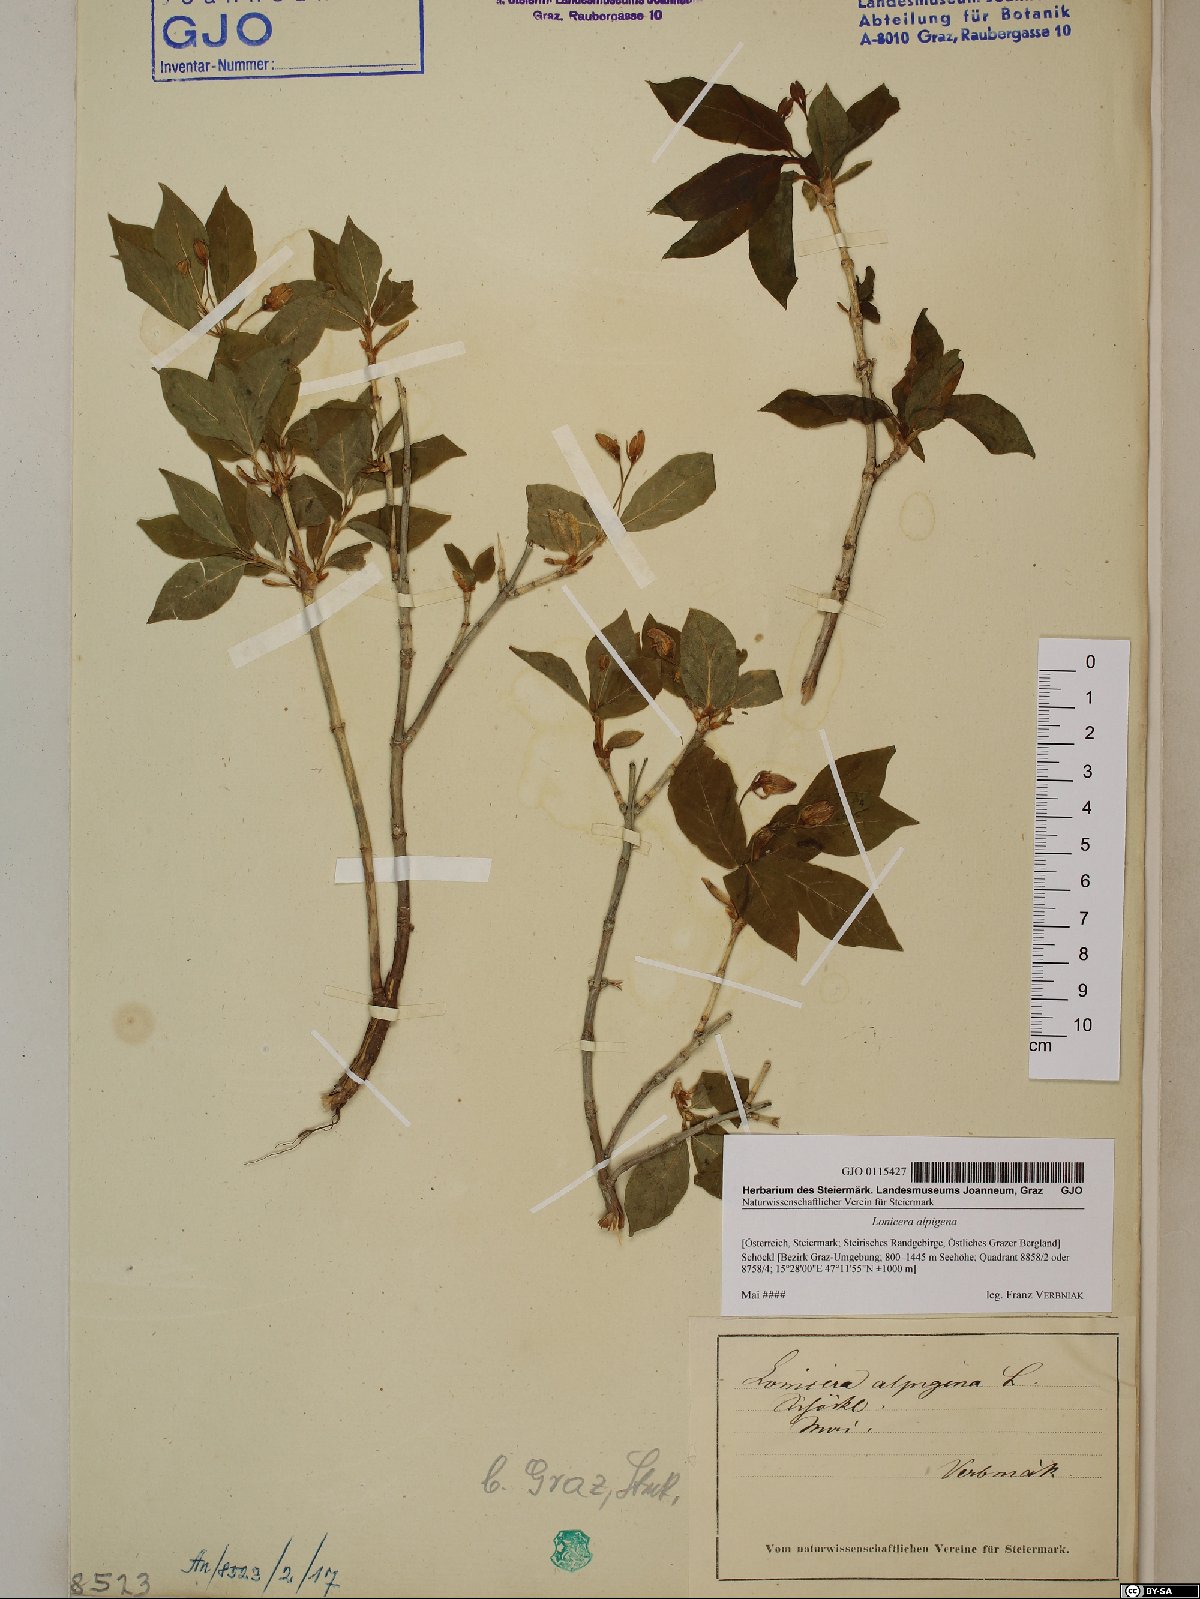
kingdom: Plantae
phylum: Tracheophyta
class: Magnoliopsida
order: Dipsacales
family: Caprifoliaceae
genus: Lonicera
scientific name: Lonicera alpigena
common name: Alpine honeysuckle
